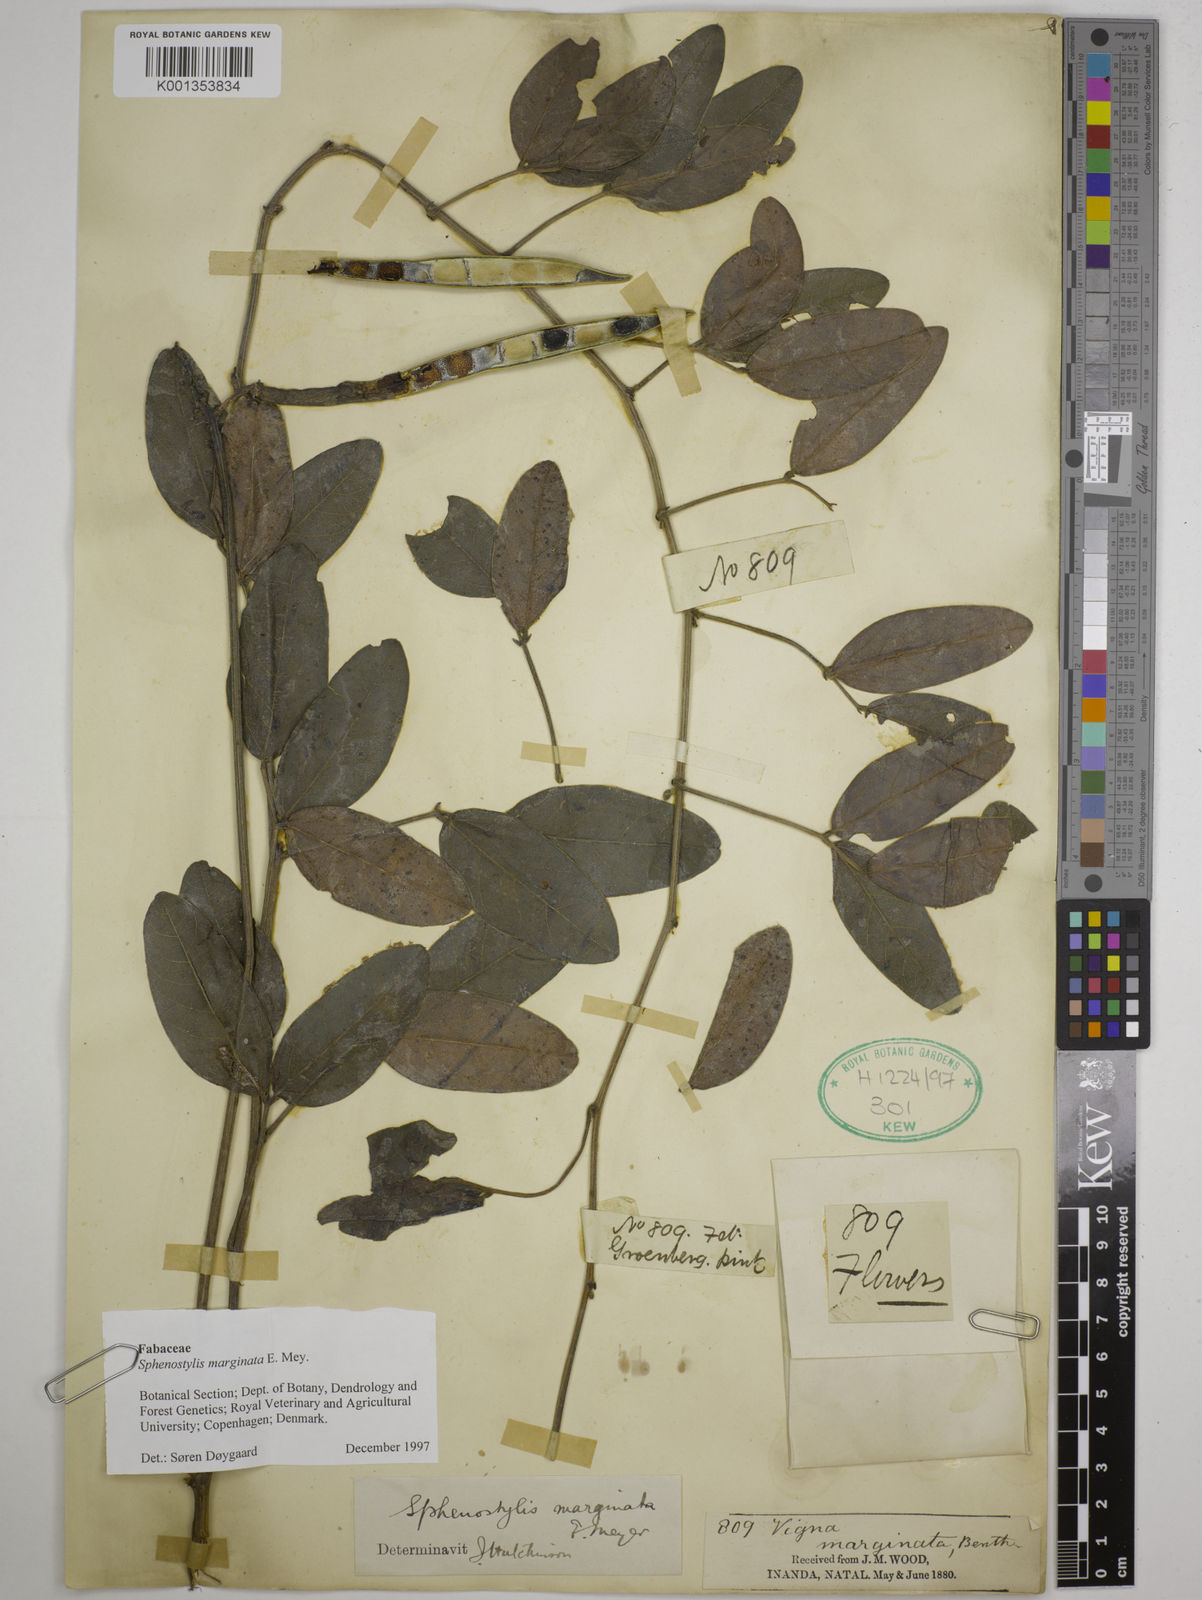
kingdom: Plantae
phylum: Tracheophyta
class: Magnoliopsida
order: Fabales
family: Fabaceae
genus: Sphenostylis
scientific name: Sphenostylis marginata
